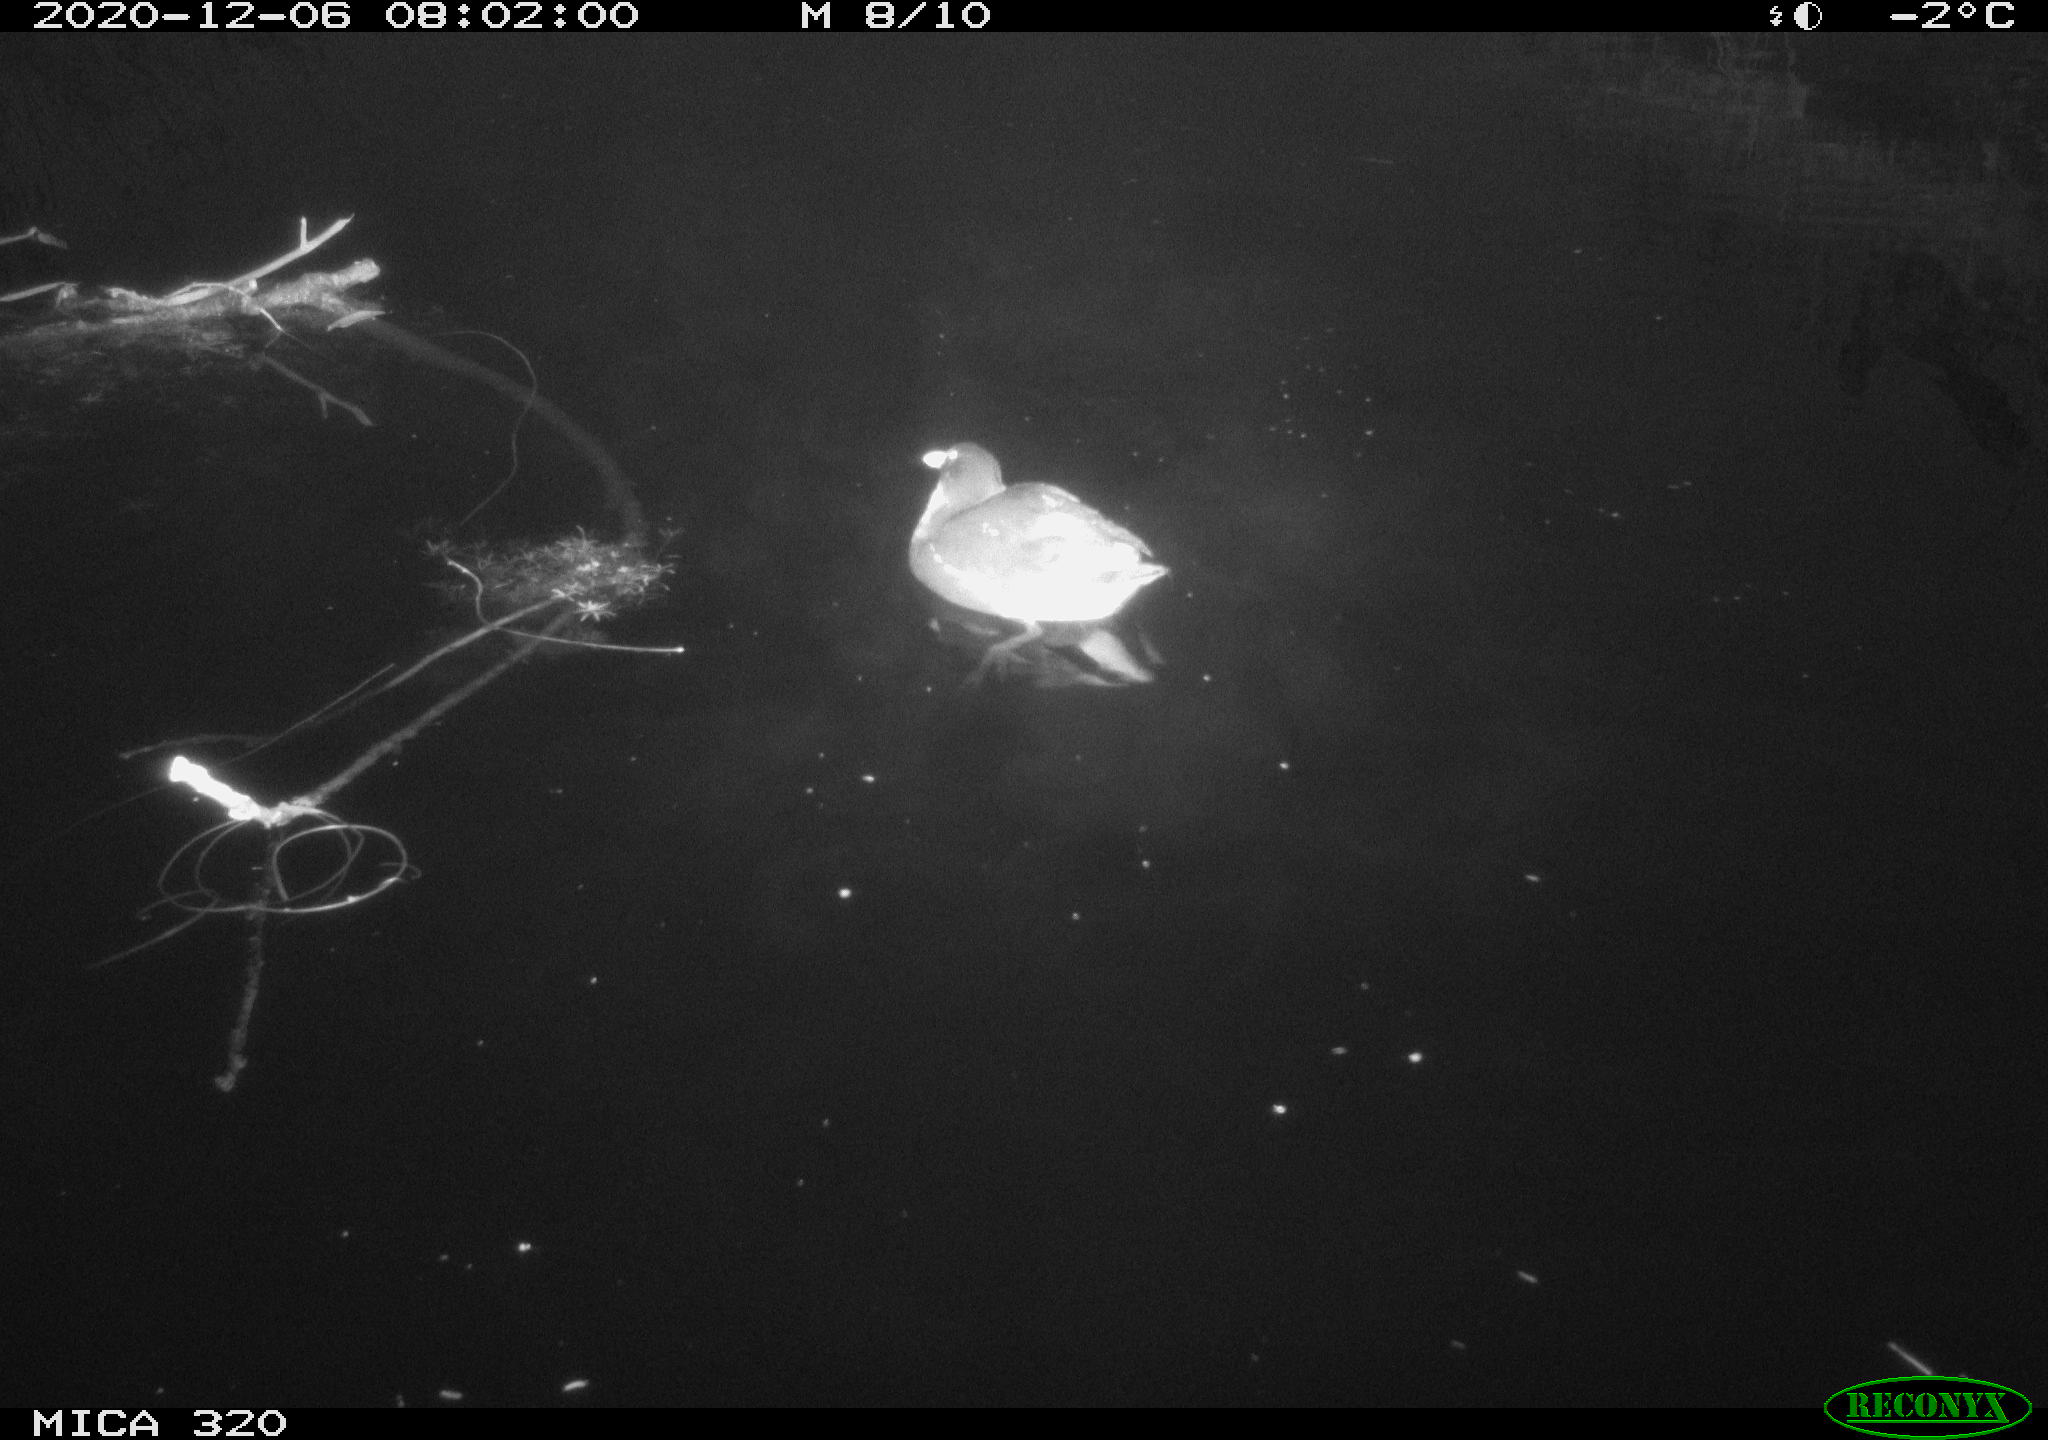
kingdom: Animalia
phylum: Chordata
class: Aves
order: Gruiformes
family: Rallidae
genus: Gallinula
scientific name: Gallinula chloropus
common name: Common moorhen
